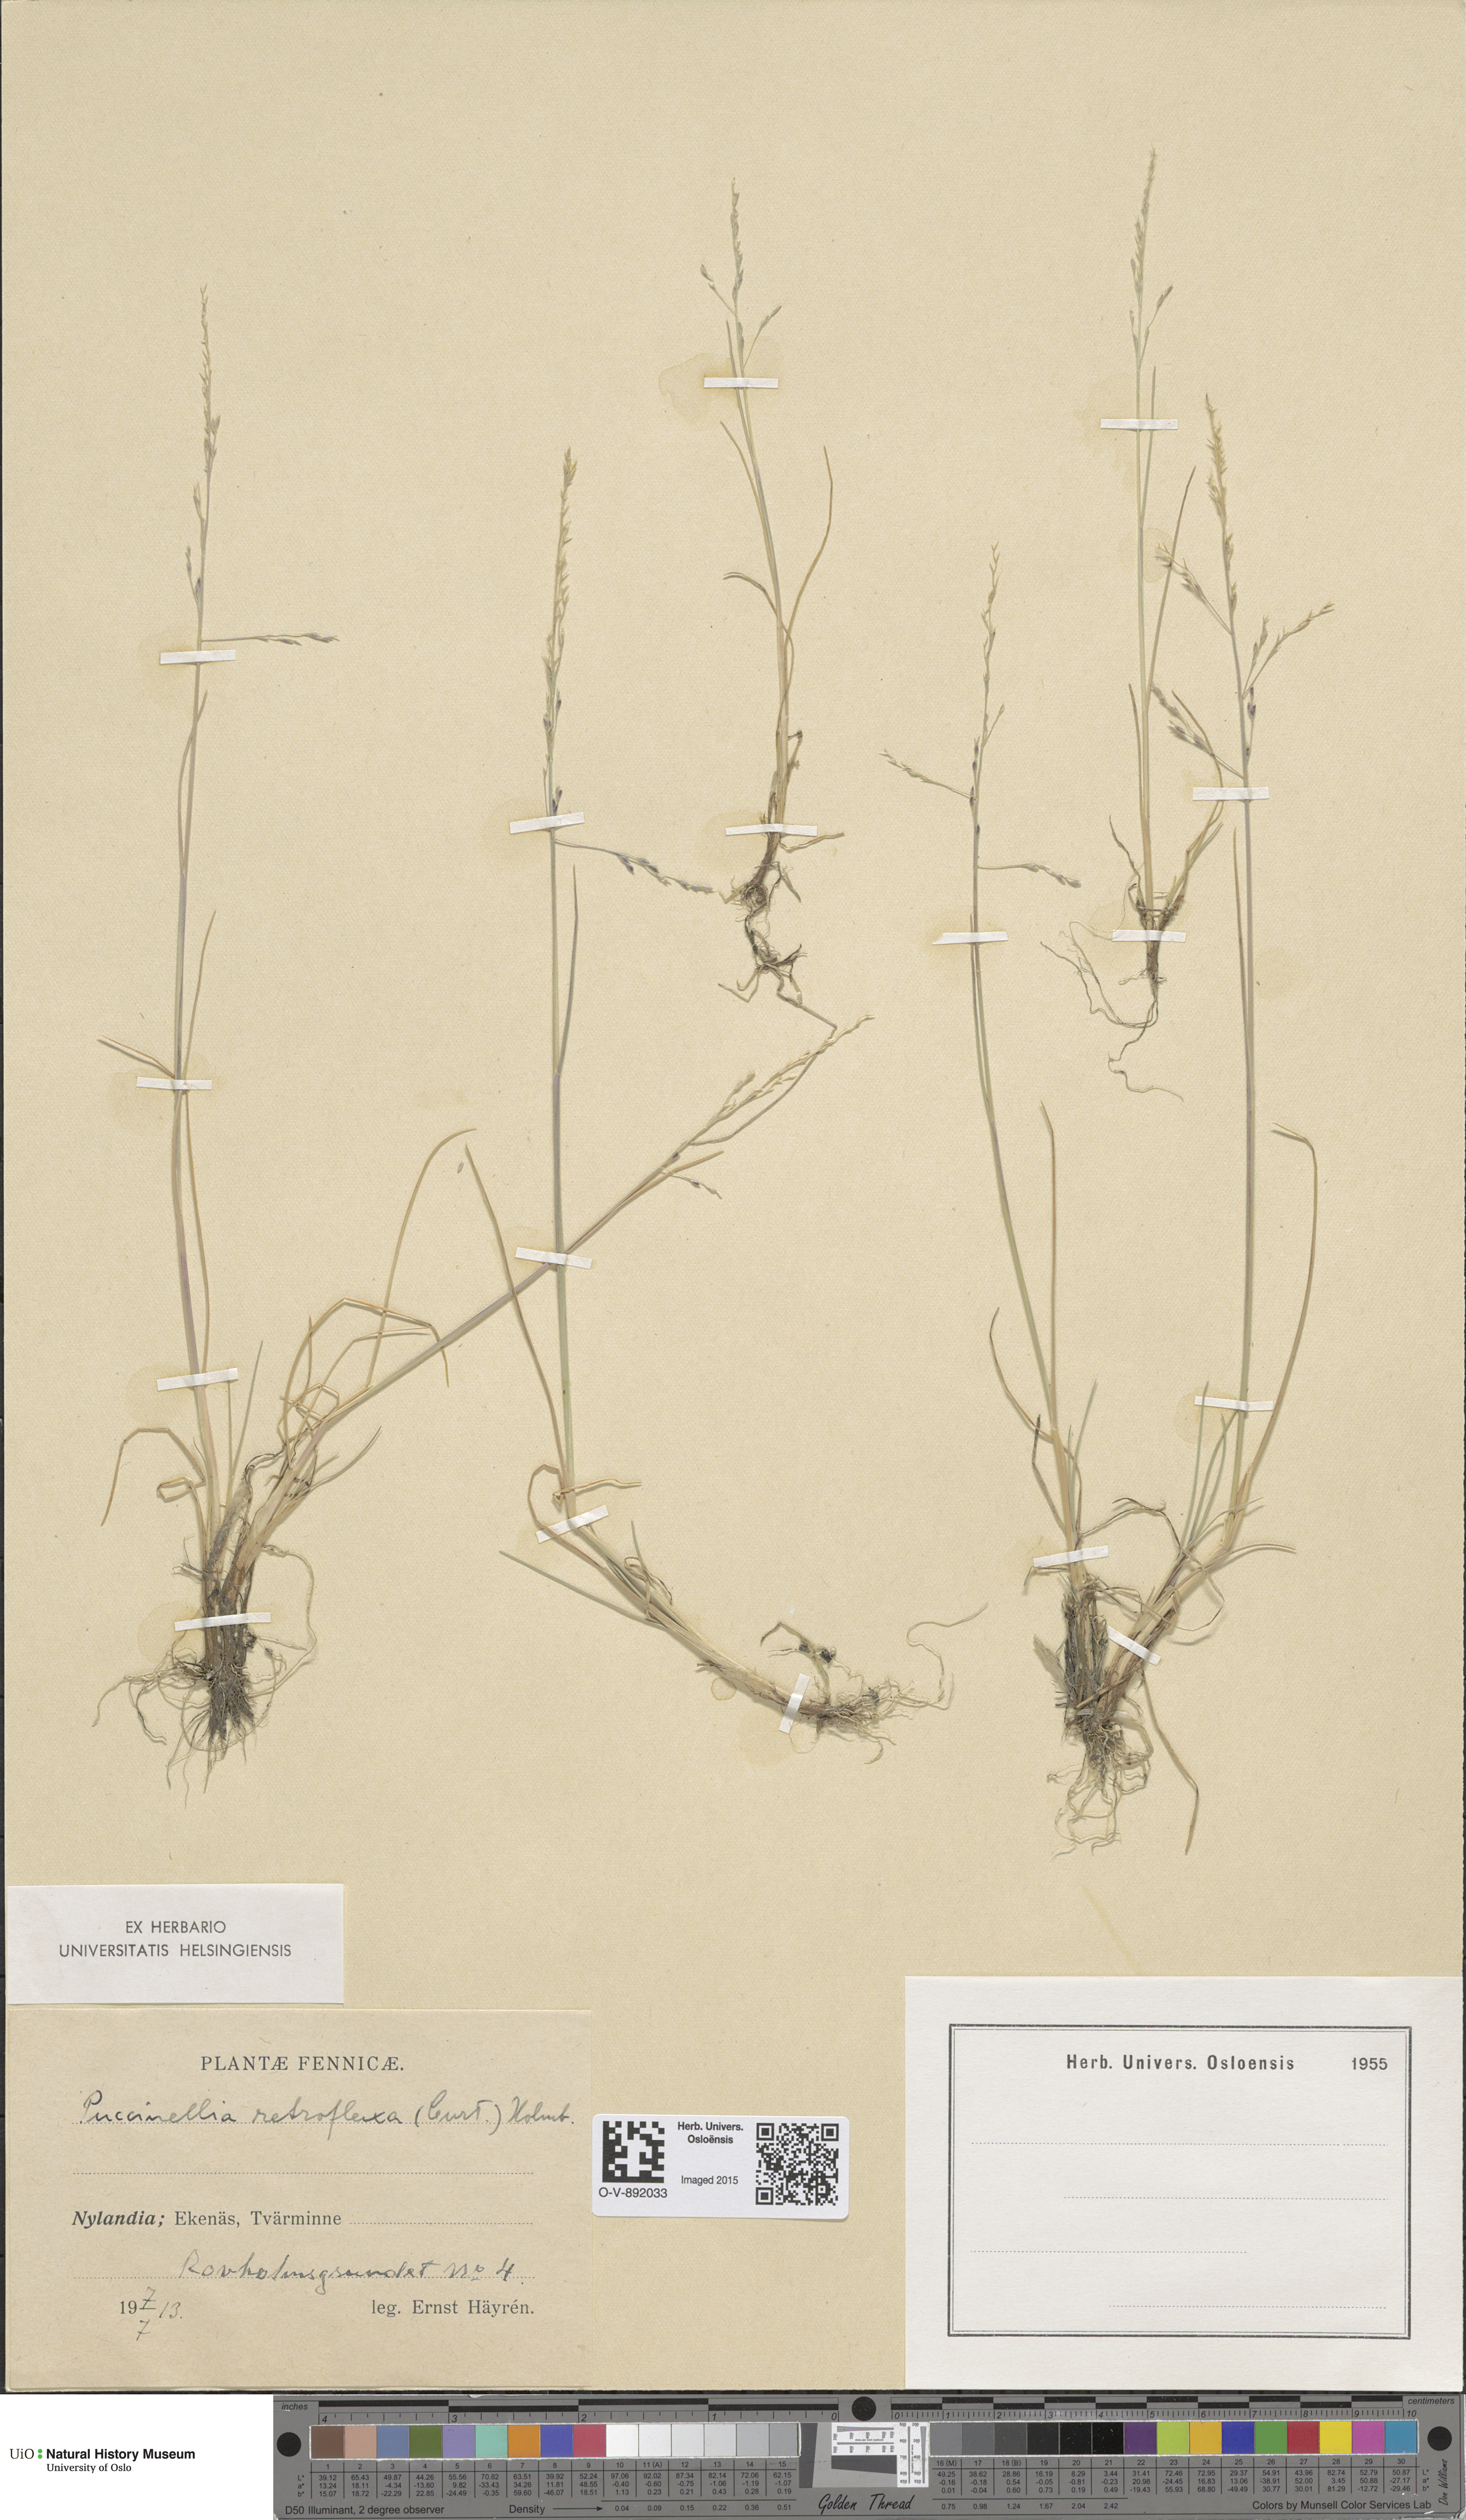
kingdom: Plantae
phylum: Tracheophyta
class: Liliopsida
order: Poales
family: Poaceae
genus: Puccinellia
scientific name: Puccinellia distans
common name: Weeping alkaligrass
